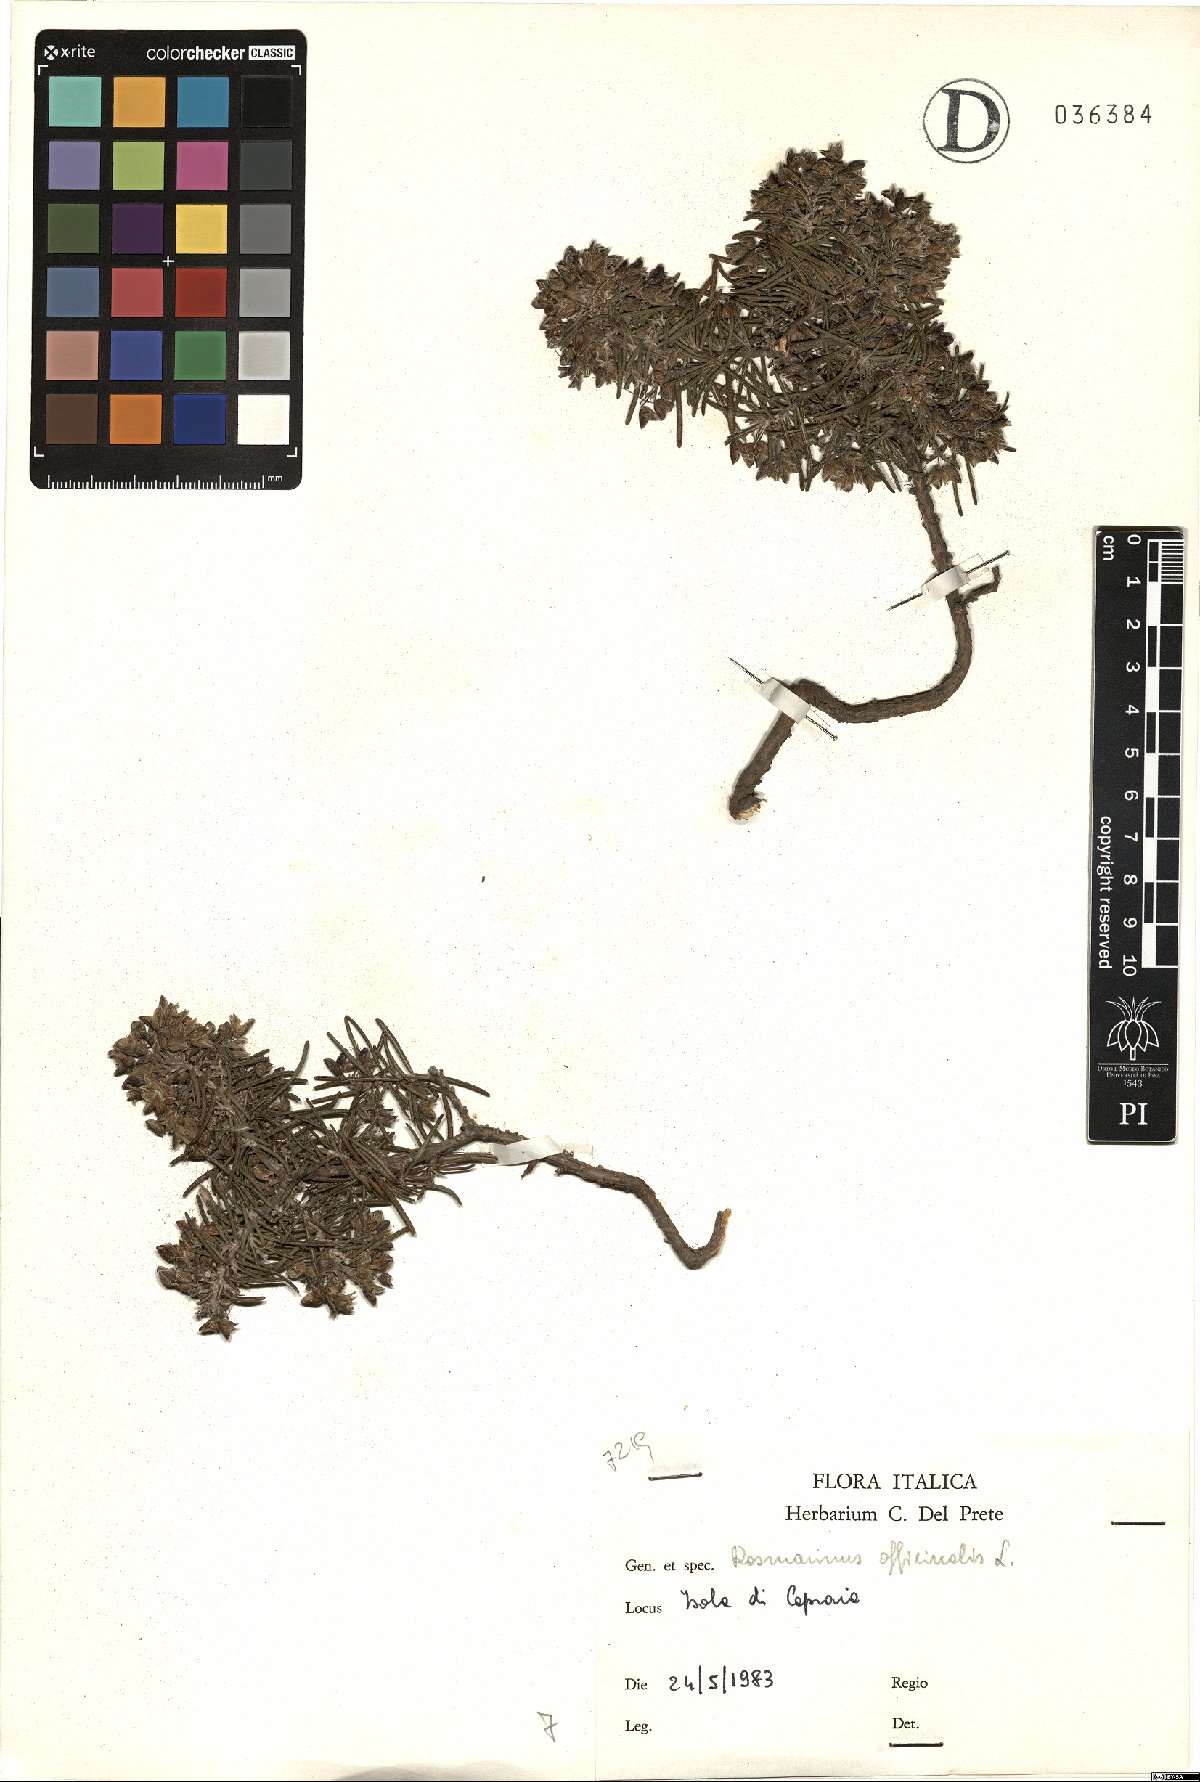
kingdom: Plantae
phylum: Tracheophyta
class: Magnoliopsida
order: Lamiales
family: Lamiaceae
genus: Salvia
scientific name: Salvia rosmarinus
